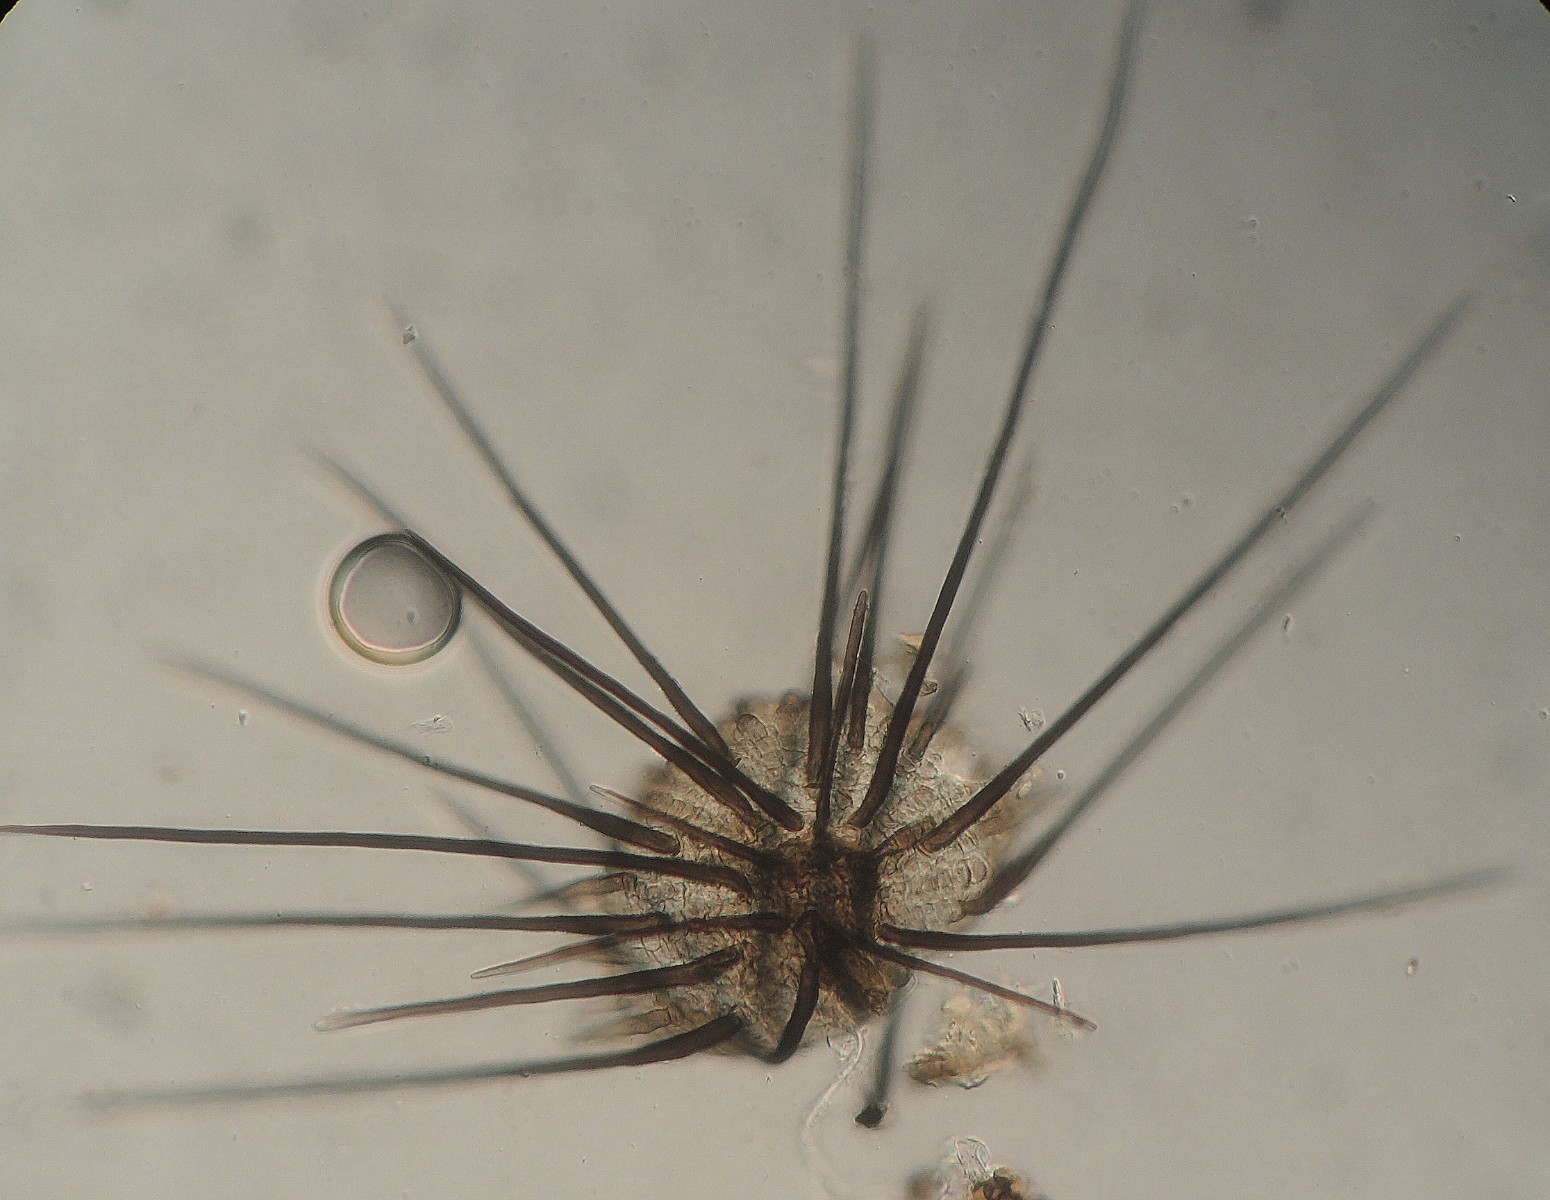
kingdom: Fungi
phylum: Ascomycota
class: Leotiomycetes
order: Helotiales
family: Hyphodiscaceae
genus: Venturiocistella
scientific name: Venturiocistella diversipila
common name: dværg-tveskægskive
